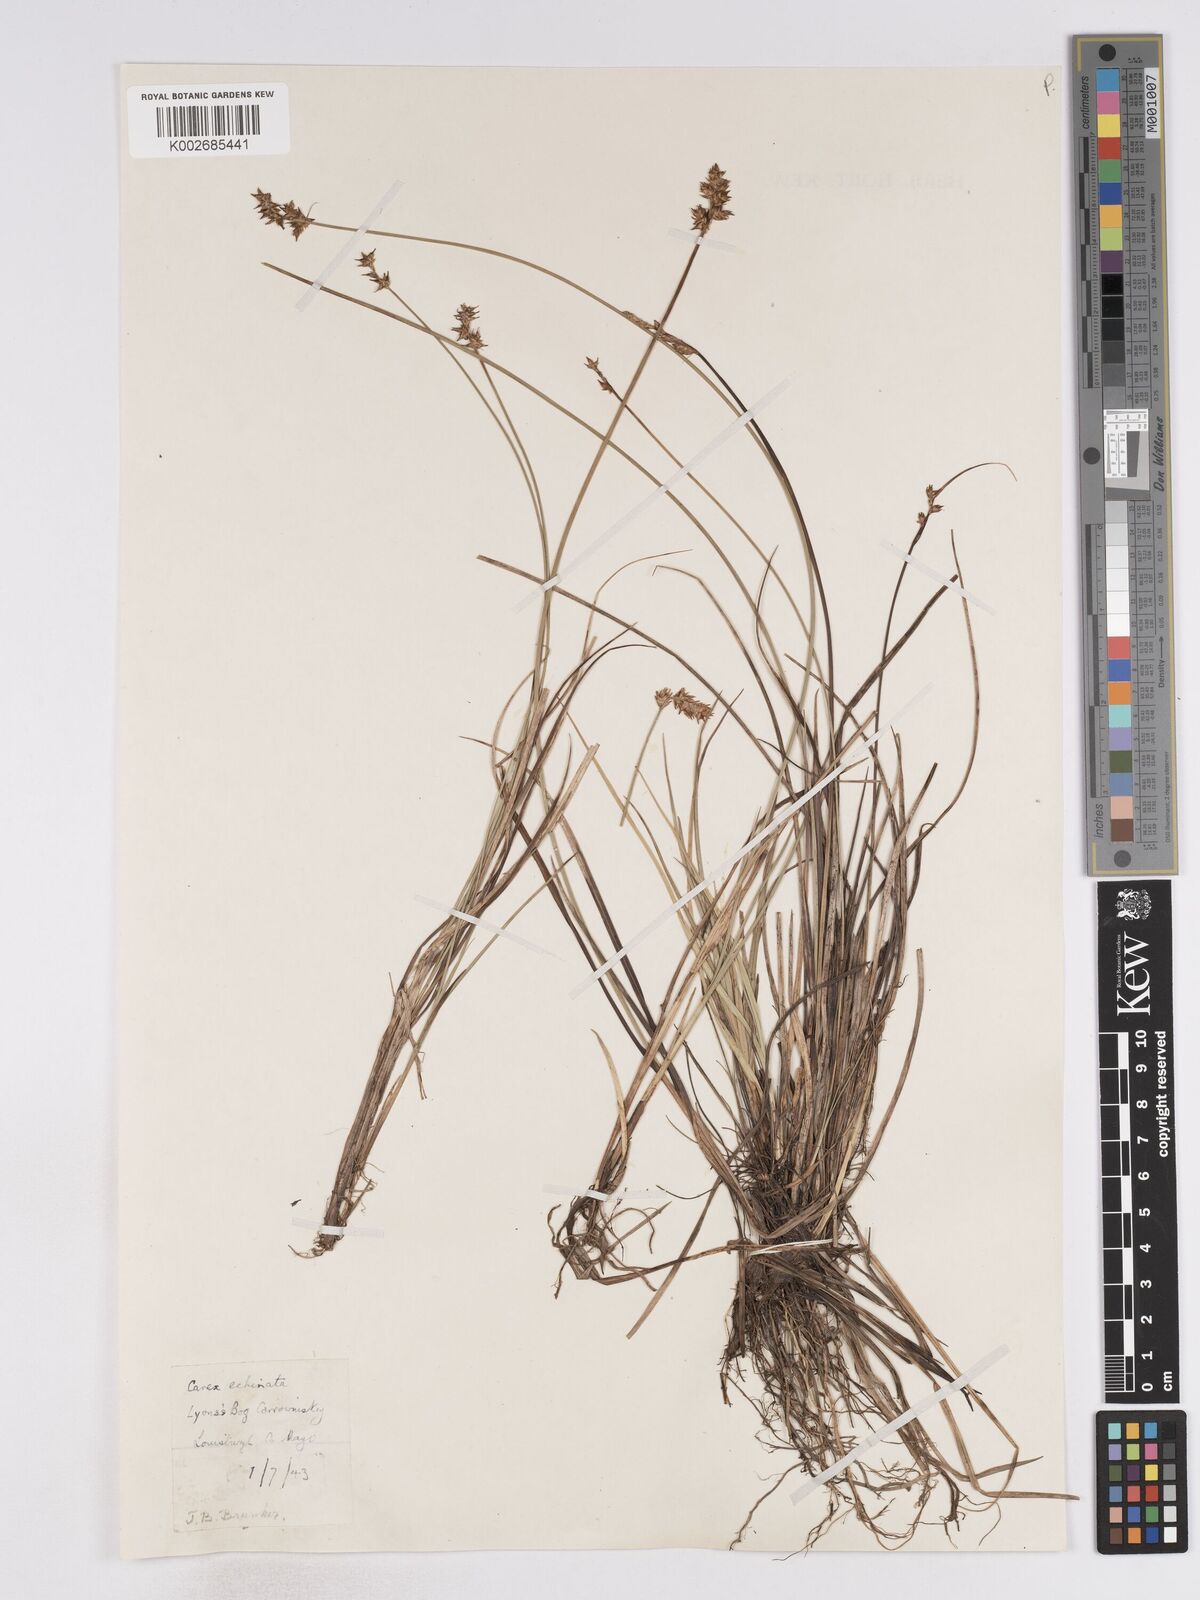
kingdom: Plantae
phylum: Tracheophyta
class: Liliopsida
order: Poales
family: Cyperaceae
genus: Carex
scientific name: Carex echinata
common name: Star sedge
